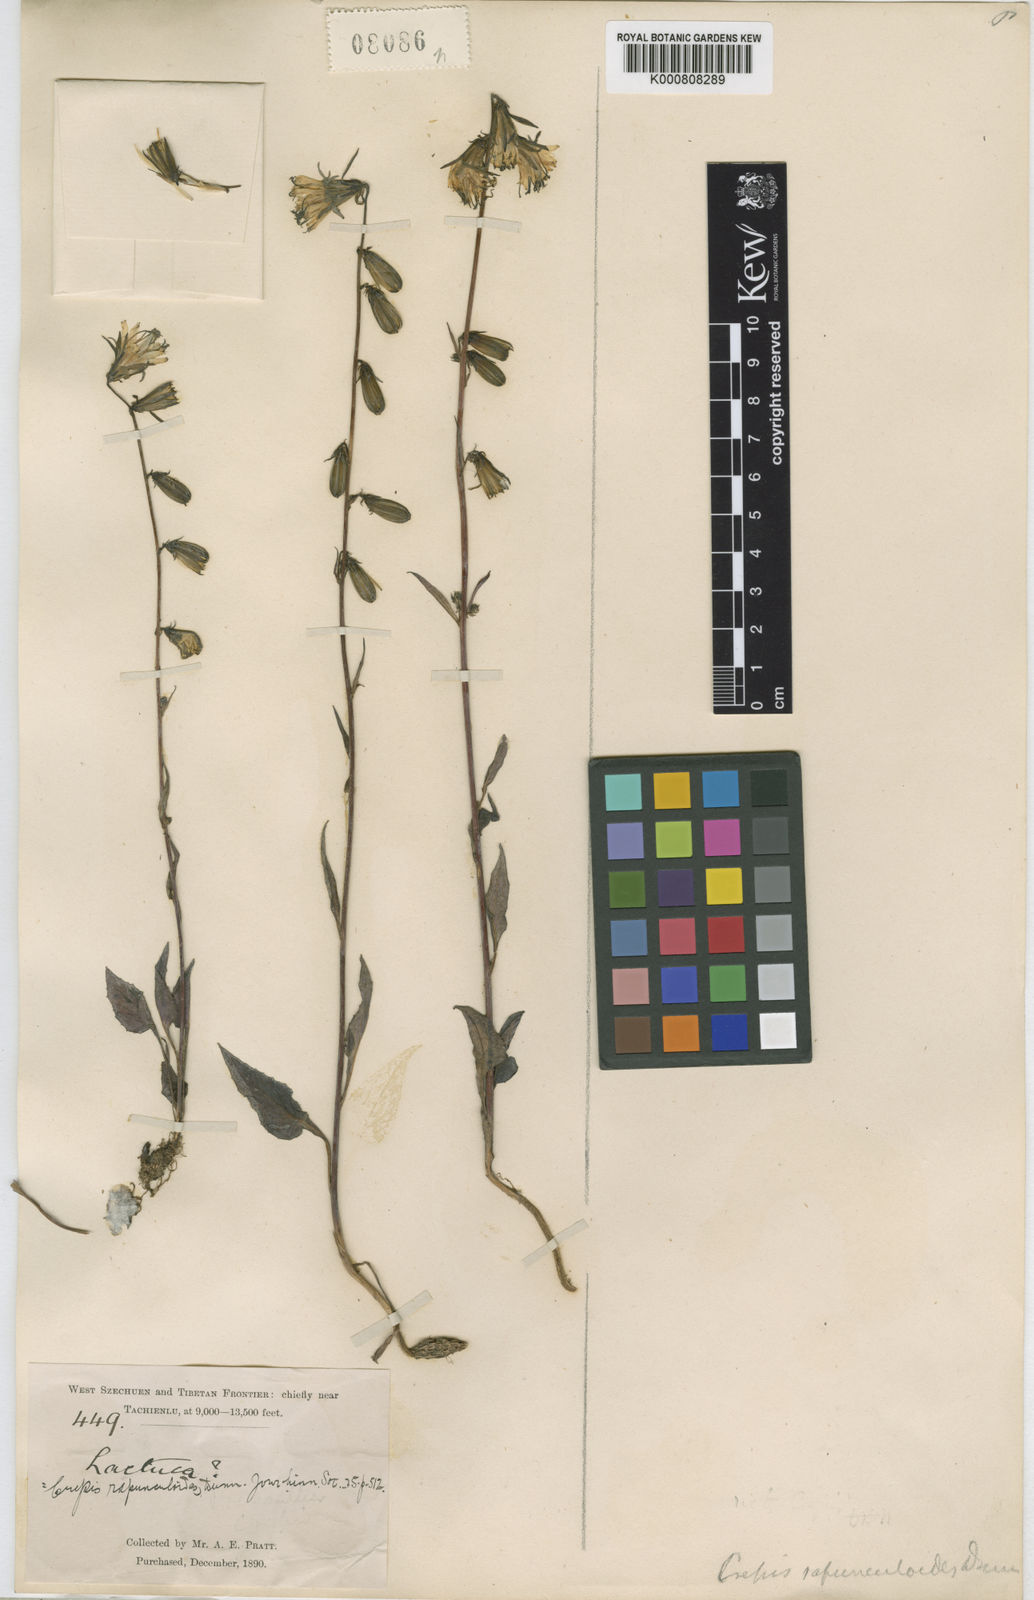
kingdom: Plantae
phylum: Tracheophyta
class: Magnoliopsida
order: Asterales
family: Asteraceae
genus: Youngia
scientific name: Youngia racemifera
